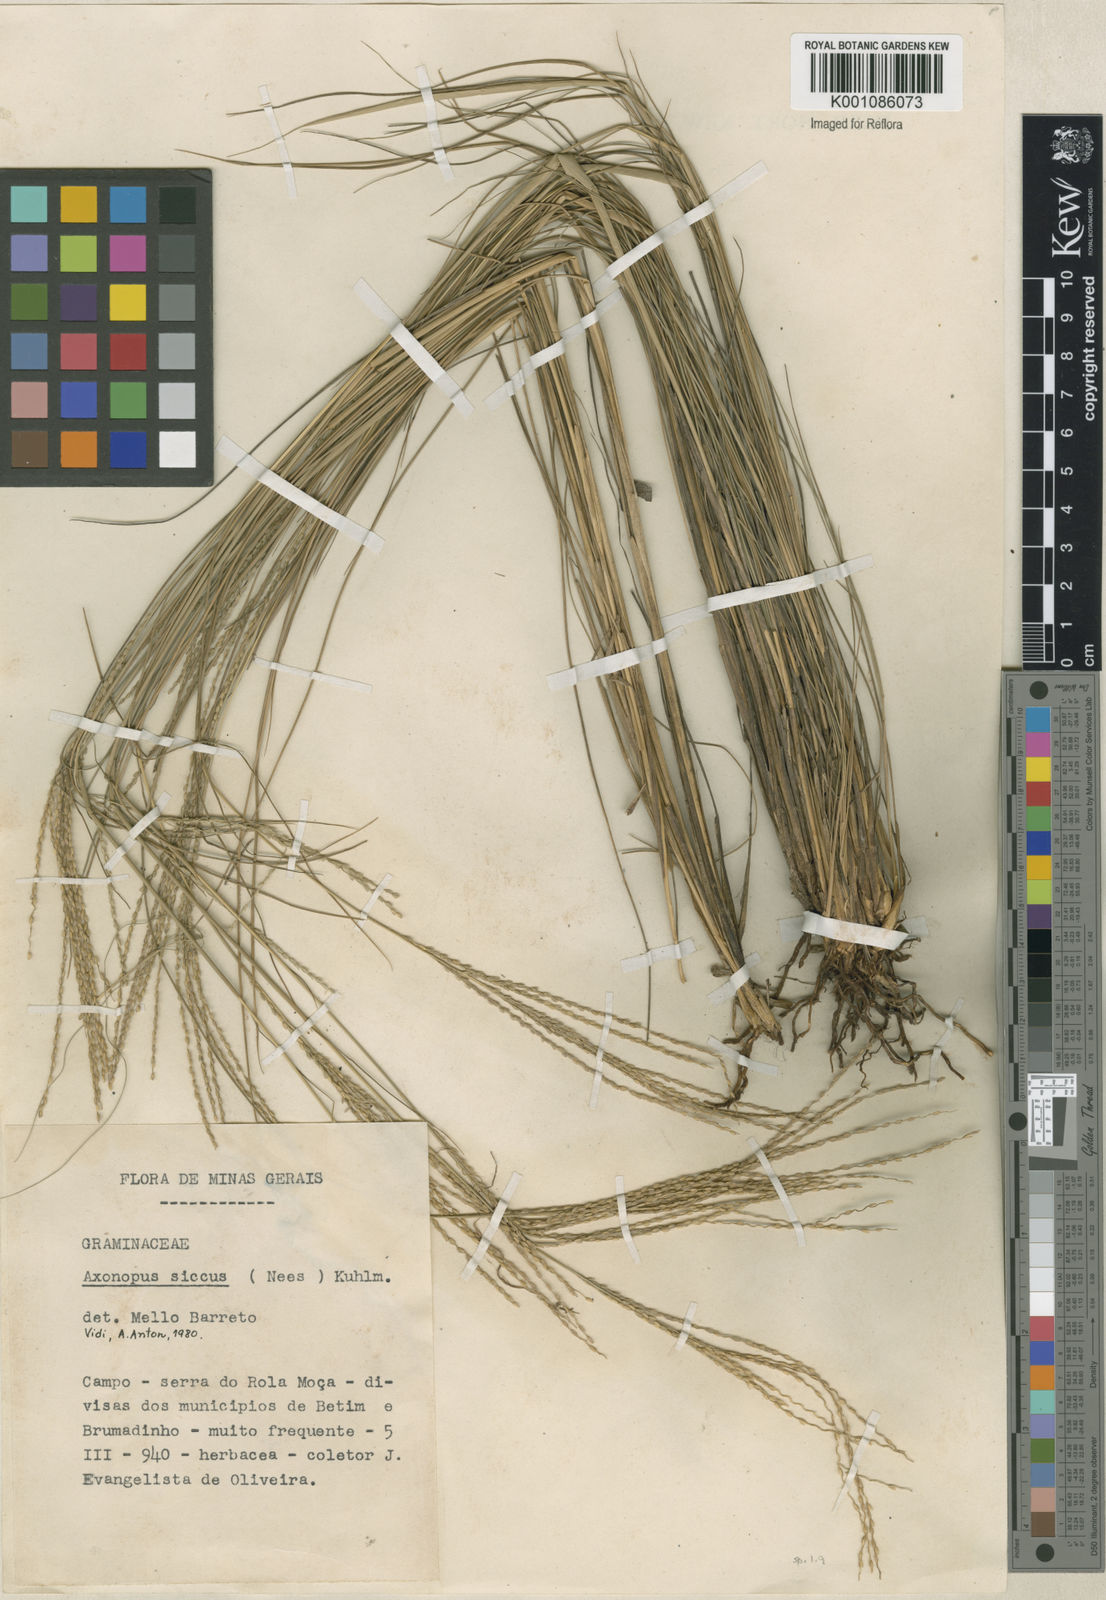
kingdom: Plantae
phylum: Tracheophyta
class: Liliopsida
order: Poales
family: Poaceae
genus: Axonopus
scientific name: Axonopus siccus
